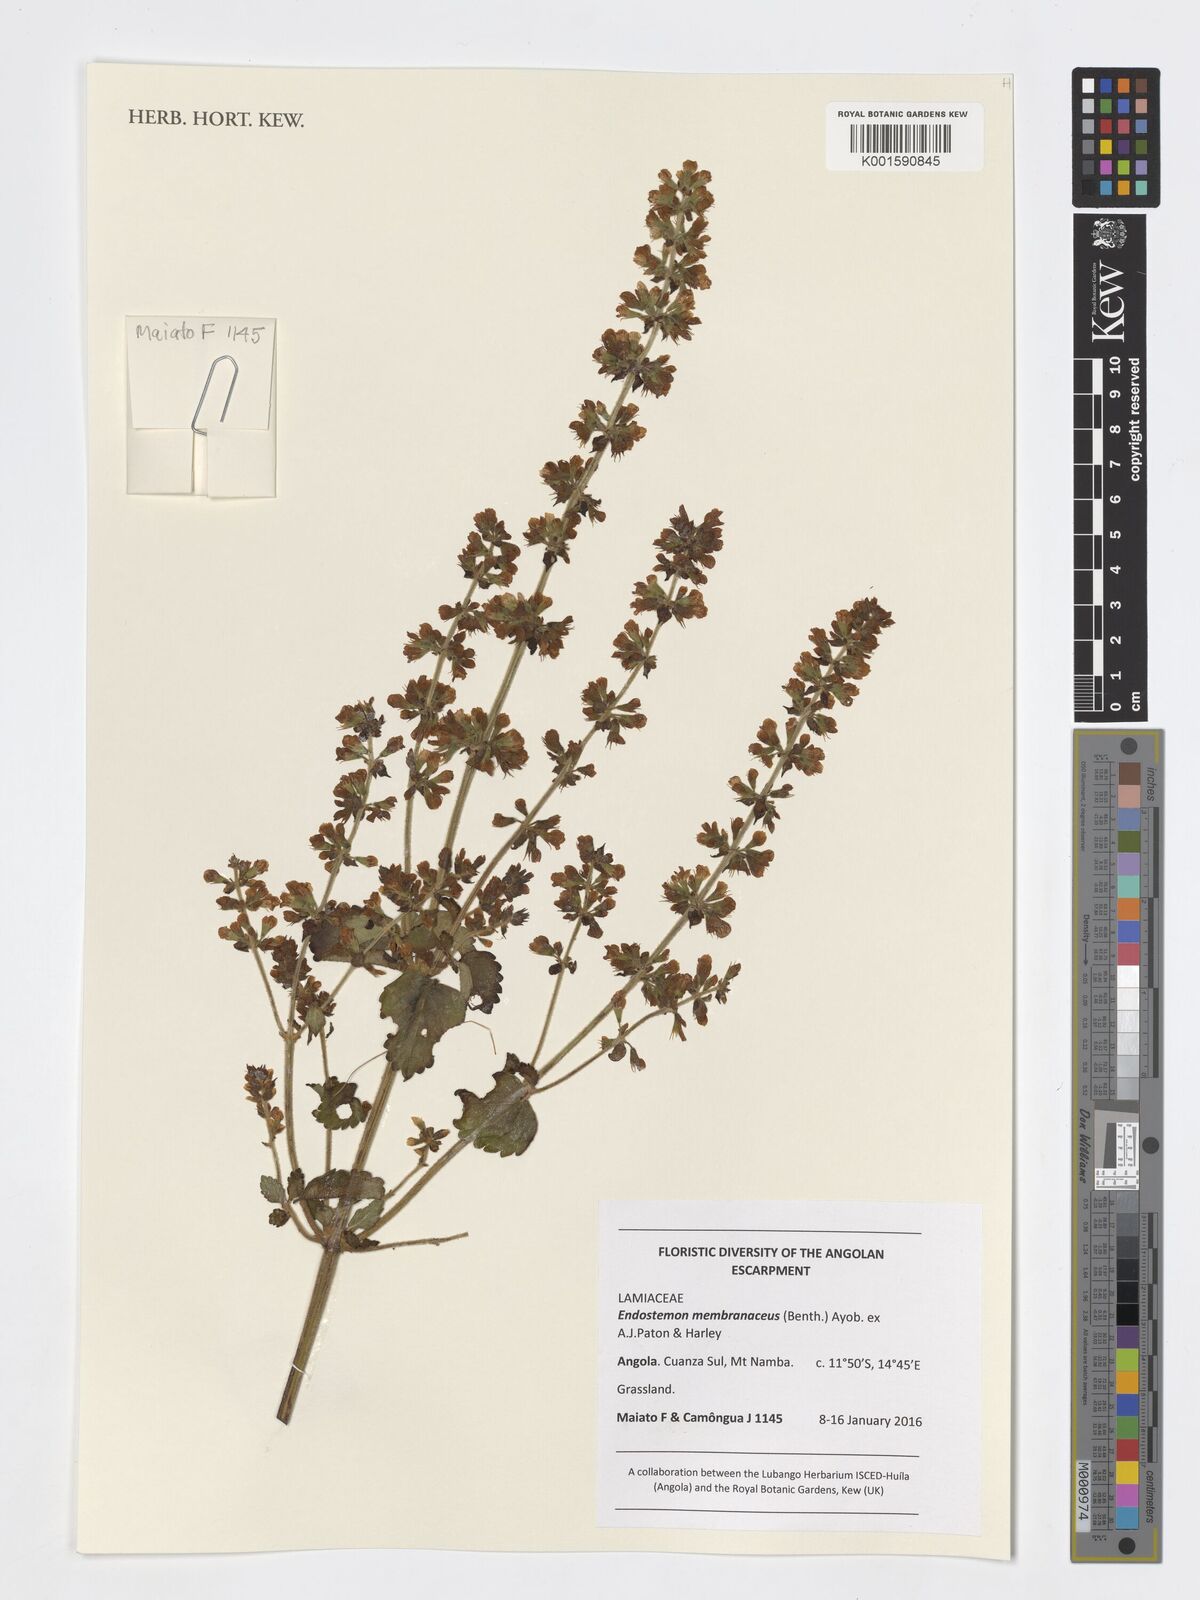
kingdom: Plantae
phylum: Tracheophyta
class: Magnoliopsida
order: Lamiales
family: Lamiaceae
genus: Endostemon
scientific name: Endostemon membranaceus
